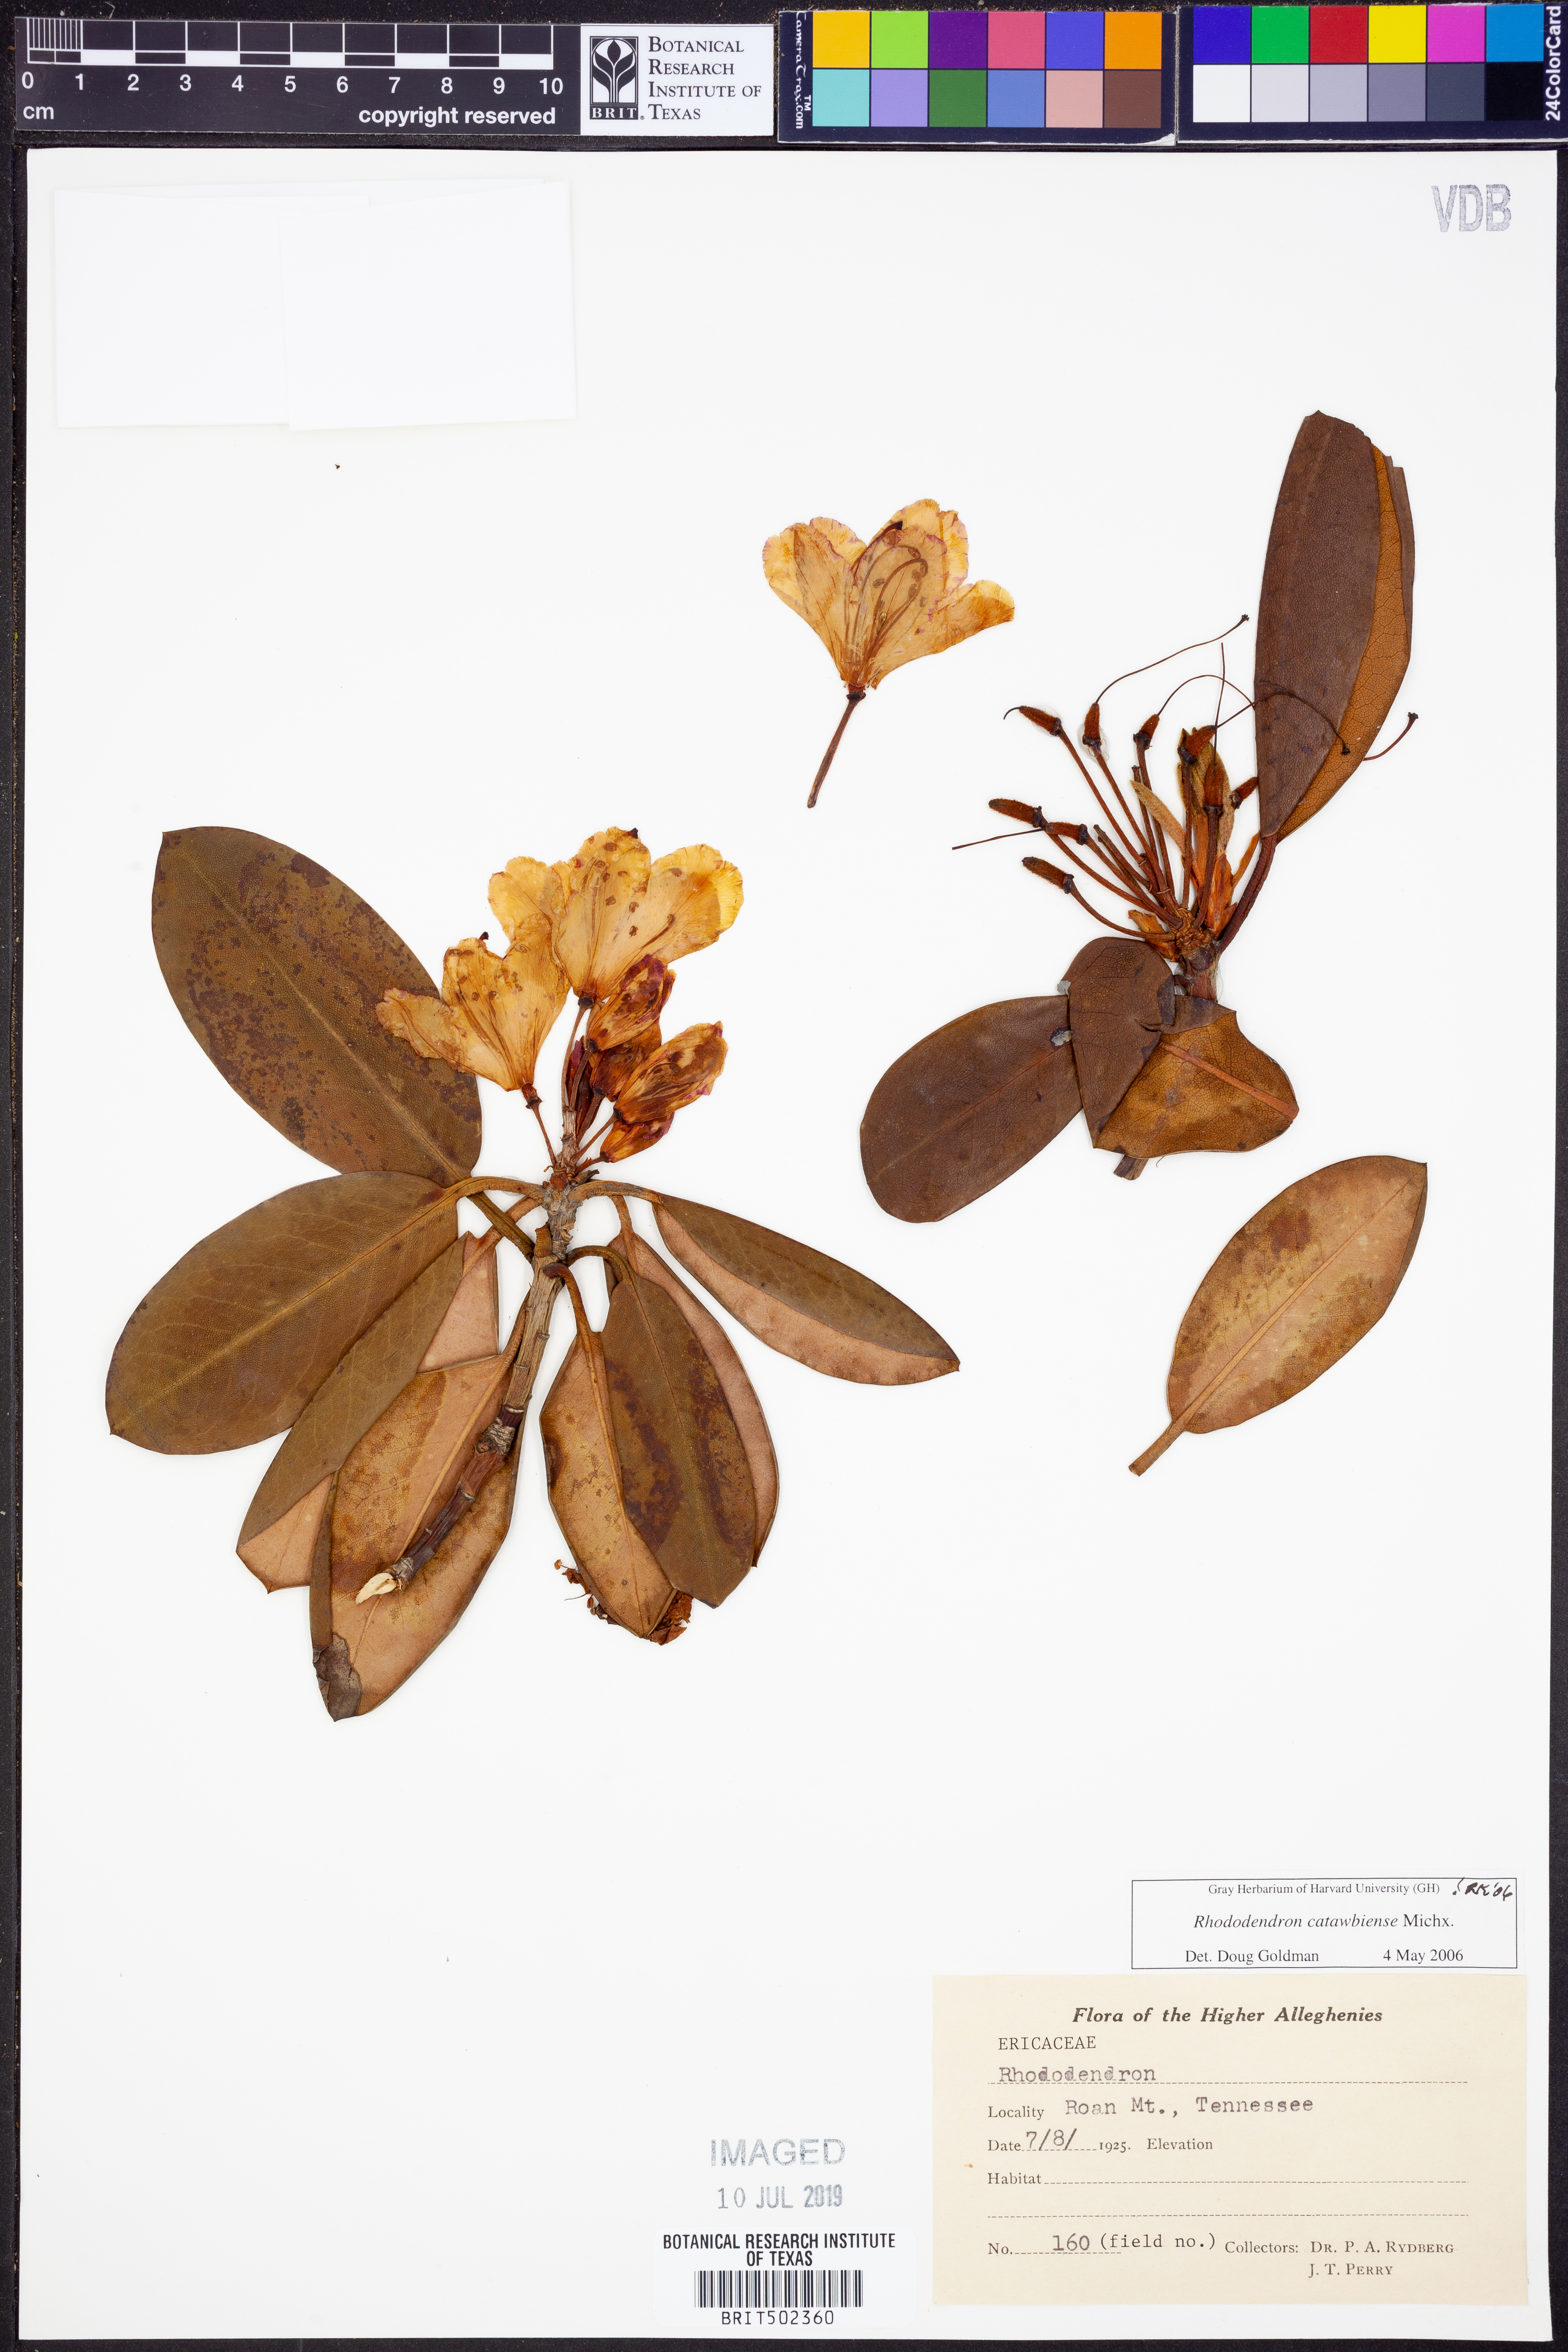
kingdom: Plantae
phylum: Tracheophyta
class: Magnoliopsida
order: Ericales
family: Ericaceae
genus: Rhododendron
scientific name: Rhododendron catawbiense
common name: Catawba rhododendron
